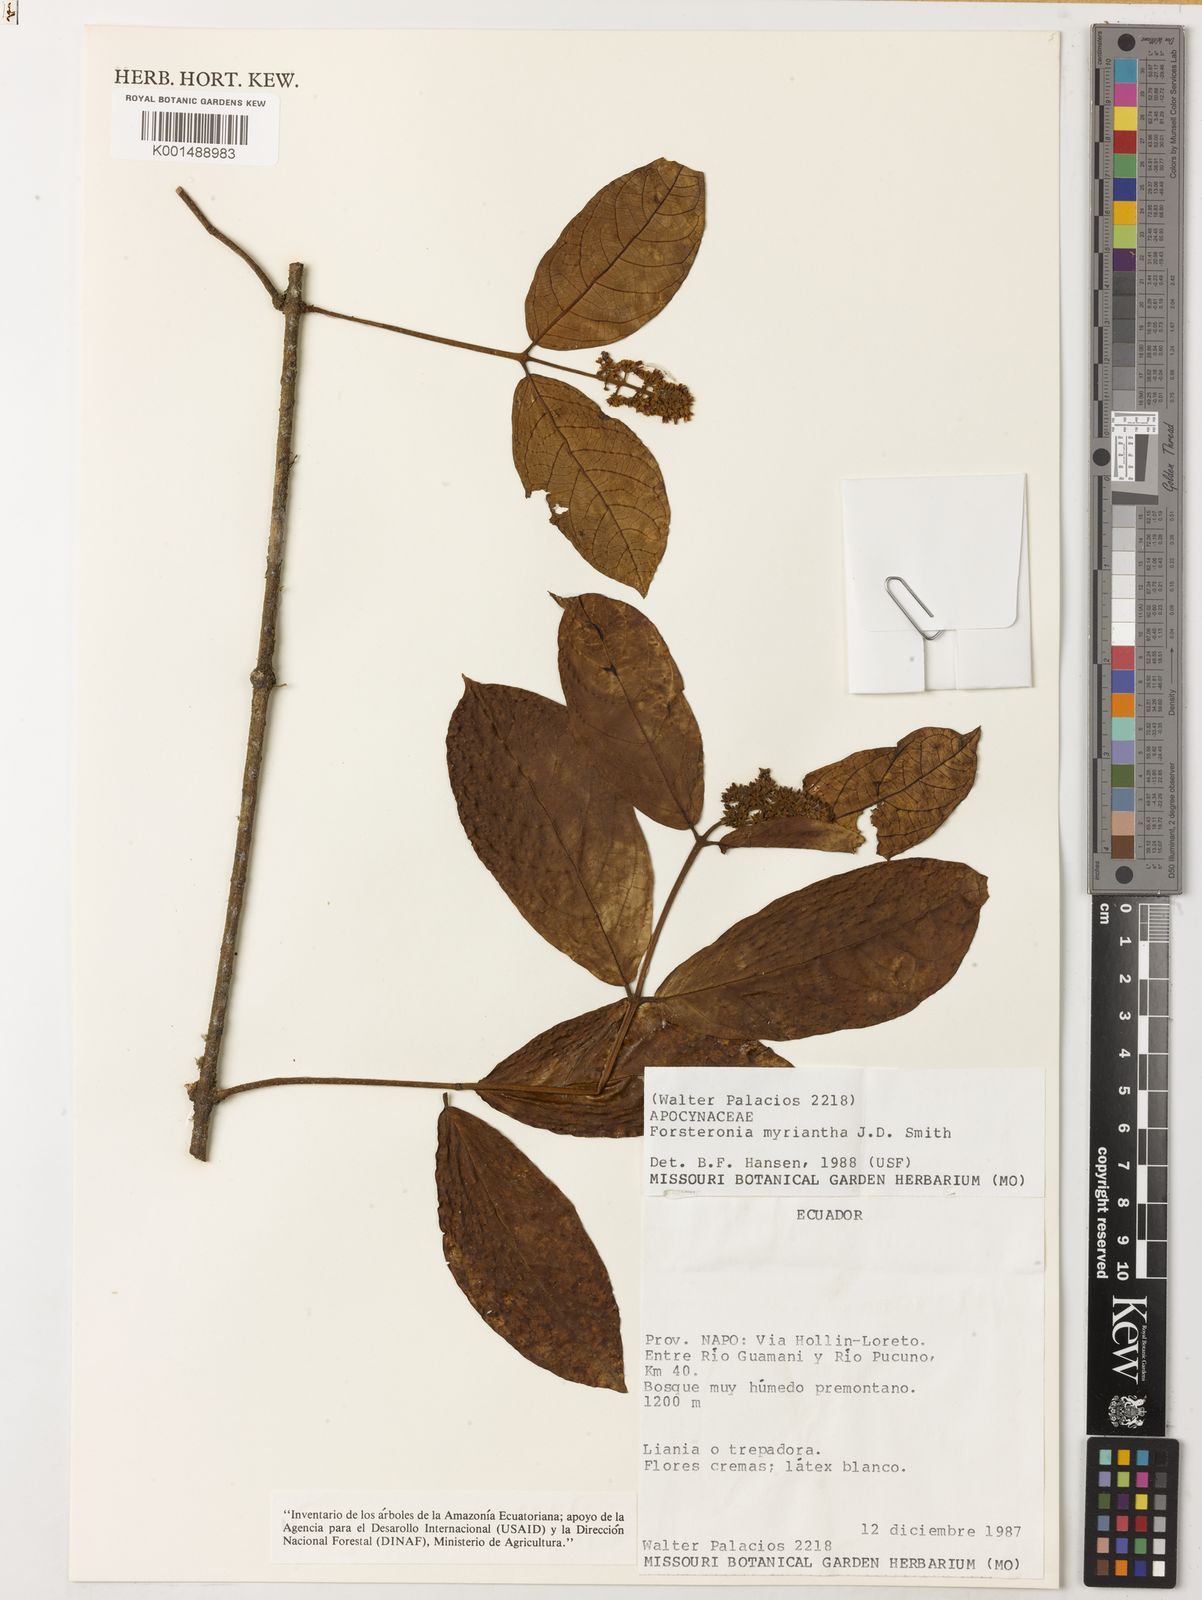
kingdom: Plantae
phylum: Tracheophyta
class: Magnoliopsida
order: Gentianales
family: Apocynaceae
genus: Forsteronia
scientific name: Forsteronia myriantha
